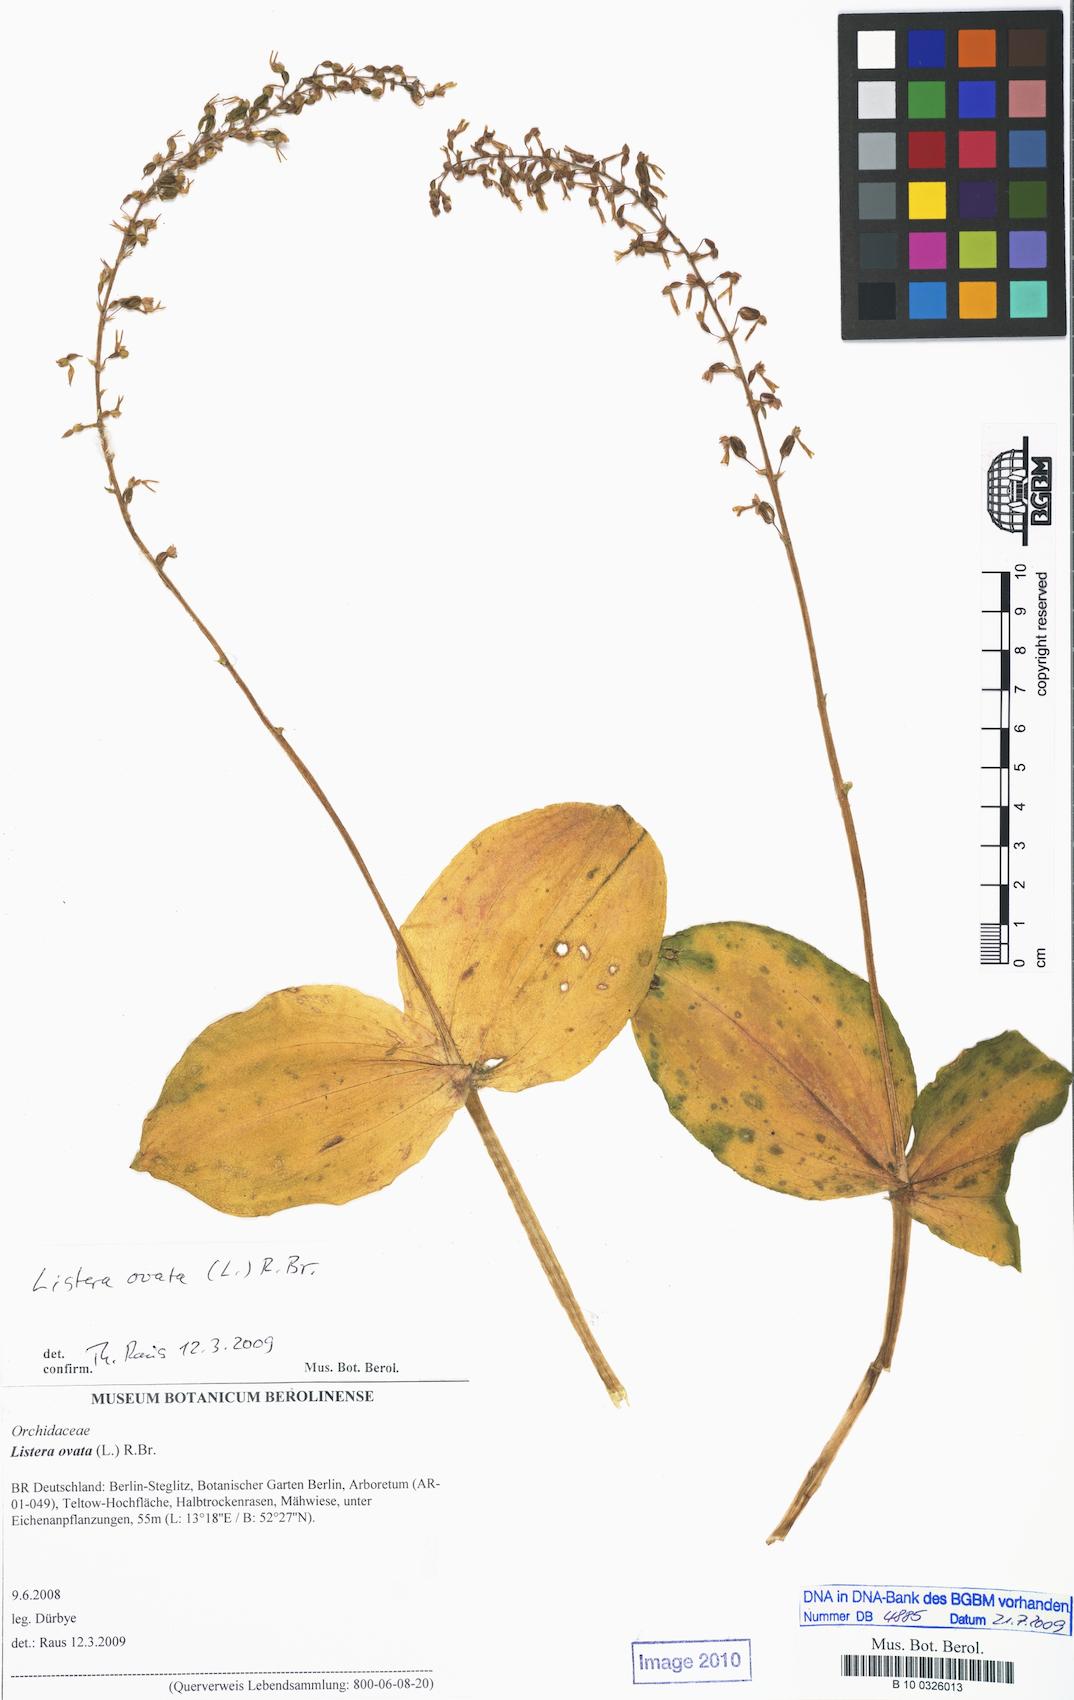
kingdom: Plantae
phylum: Tracheophyta
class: Liliopsida
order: Asparagales
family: Orchidaceae
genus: Neottia
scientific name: Neottia ovata
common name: Common twayblade
